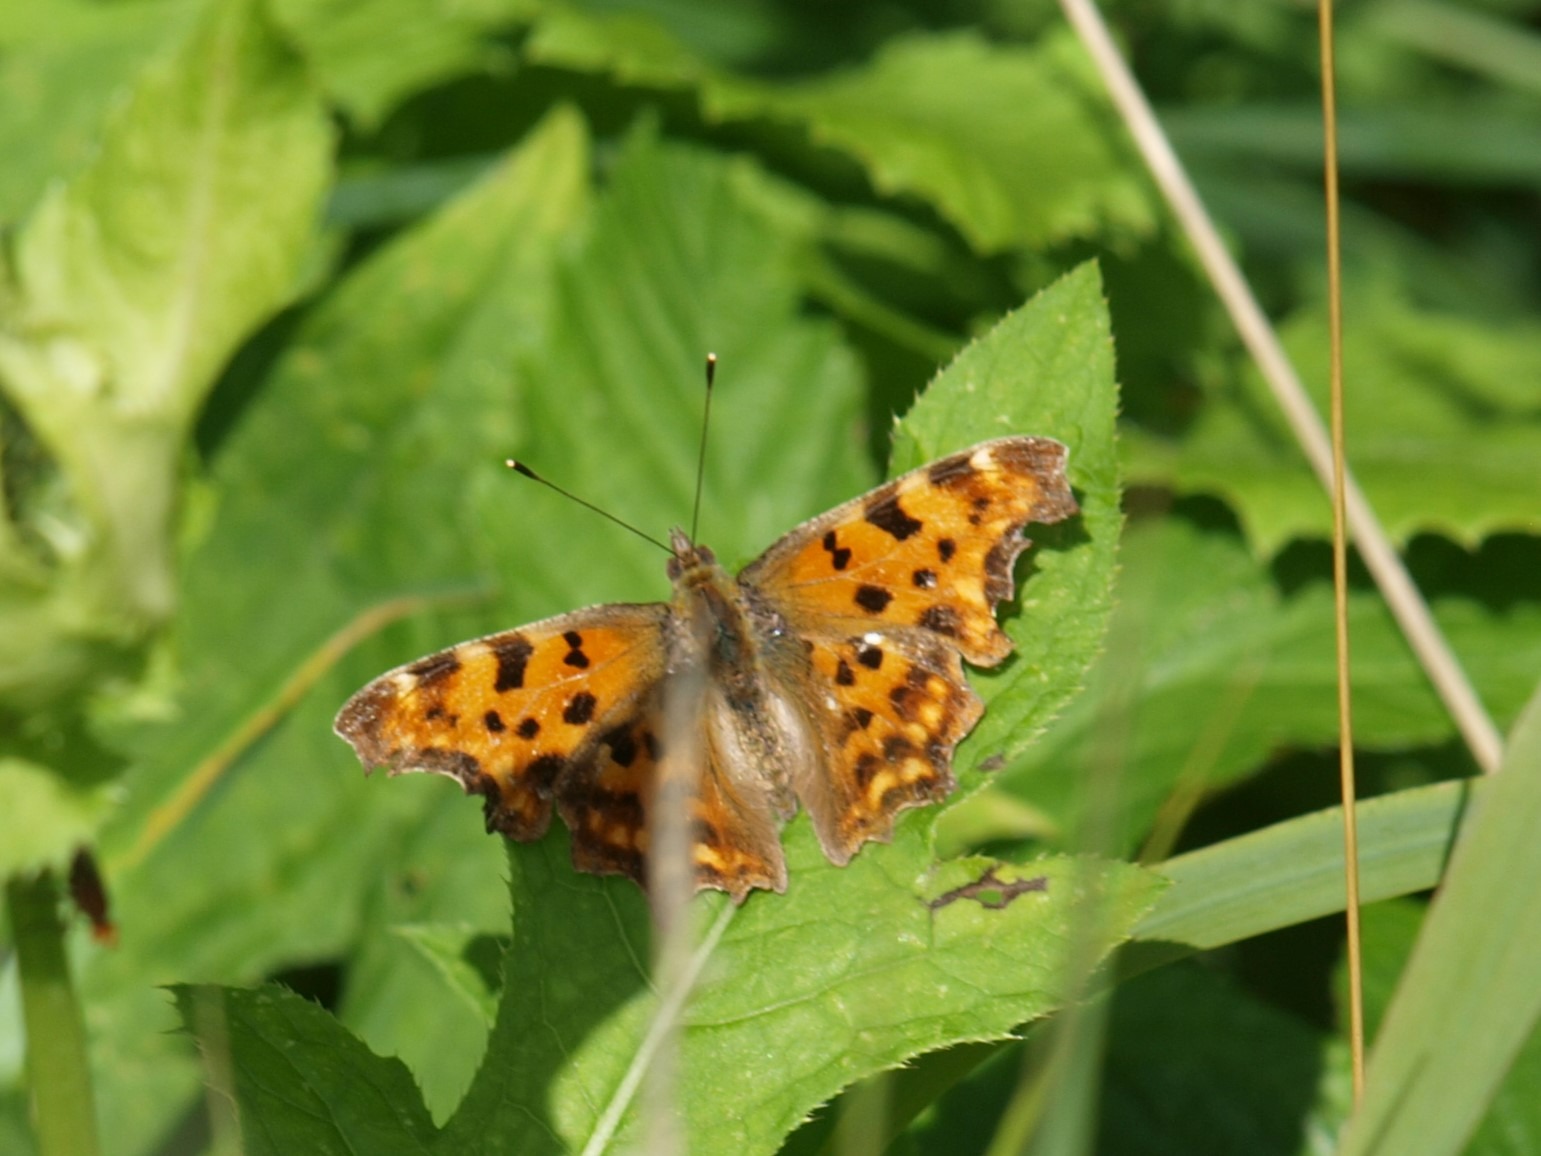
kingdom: Animalia
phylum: Arthropoda
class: Insecta
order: Lepidoptera
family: Nymphalidae
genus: Polygonia
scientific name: Polygonia c-album
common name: Det hvide C
